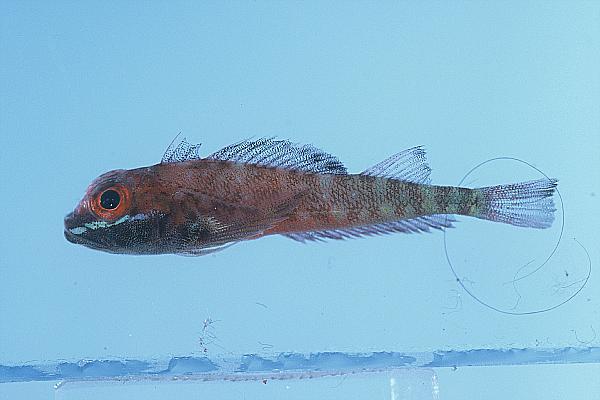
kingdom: Animalia
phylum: Chordata
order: Perciformes
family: Tripterygiidae
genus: Helcogramma
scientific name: Helcogramma fuscopinna
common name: Blackfin triplefin
